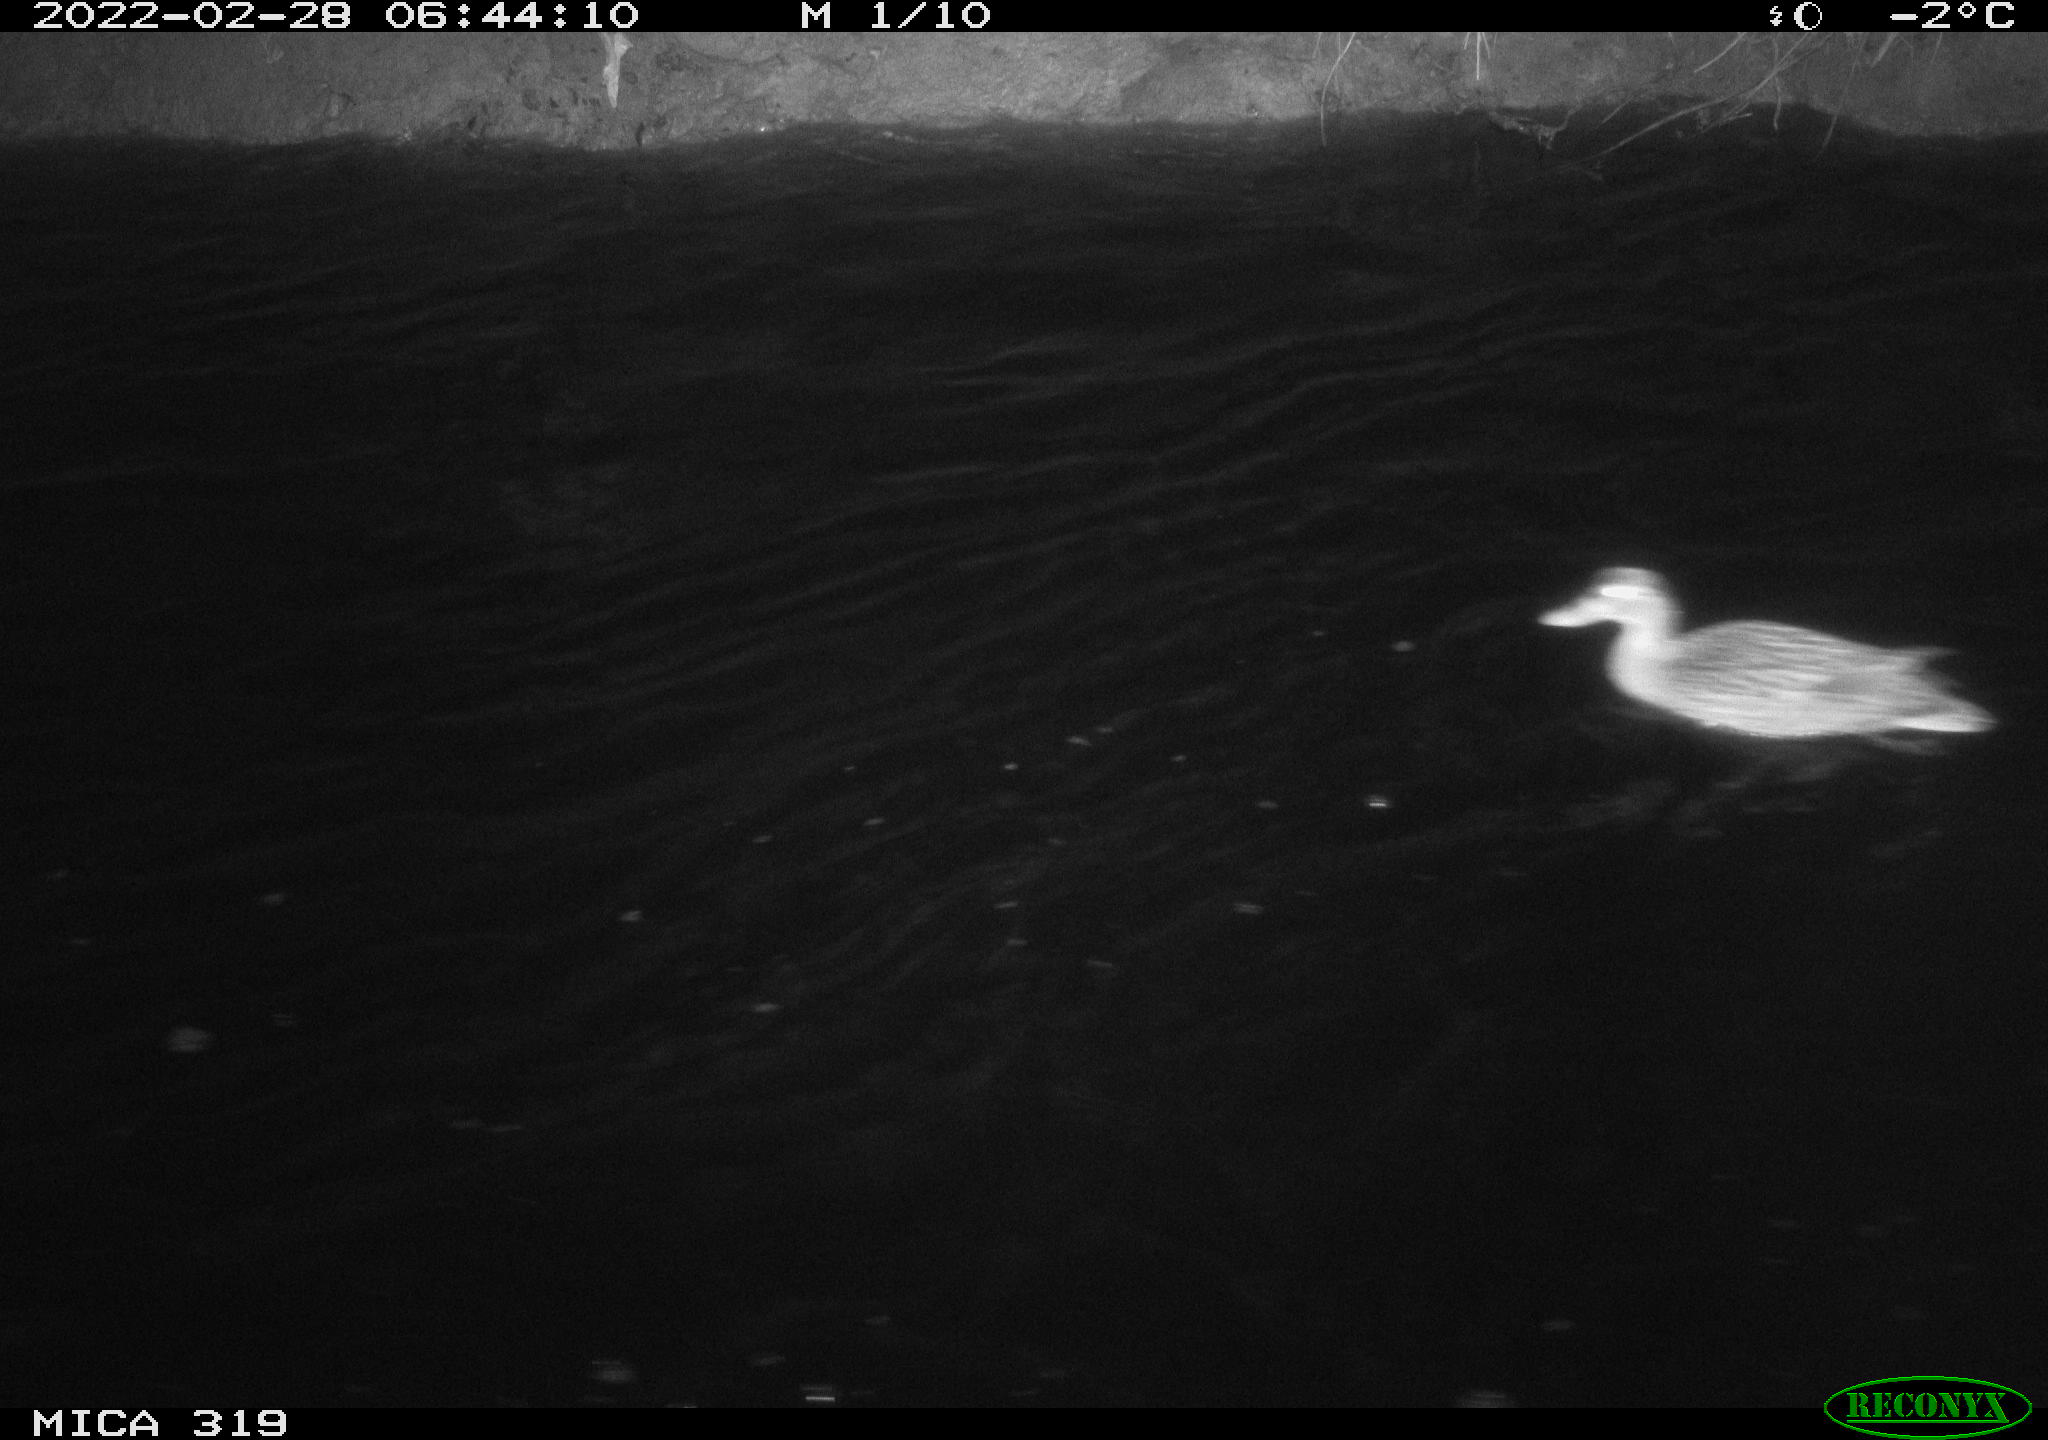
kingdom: Animalia
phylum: Chordata
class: Aves
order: Anseriformes
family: Anatidae
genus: Mareca
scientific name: Mareca strepera
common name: Gadwall
